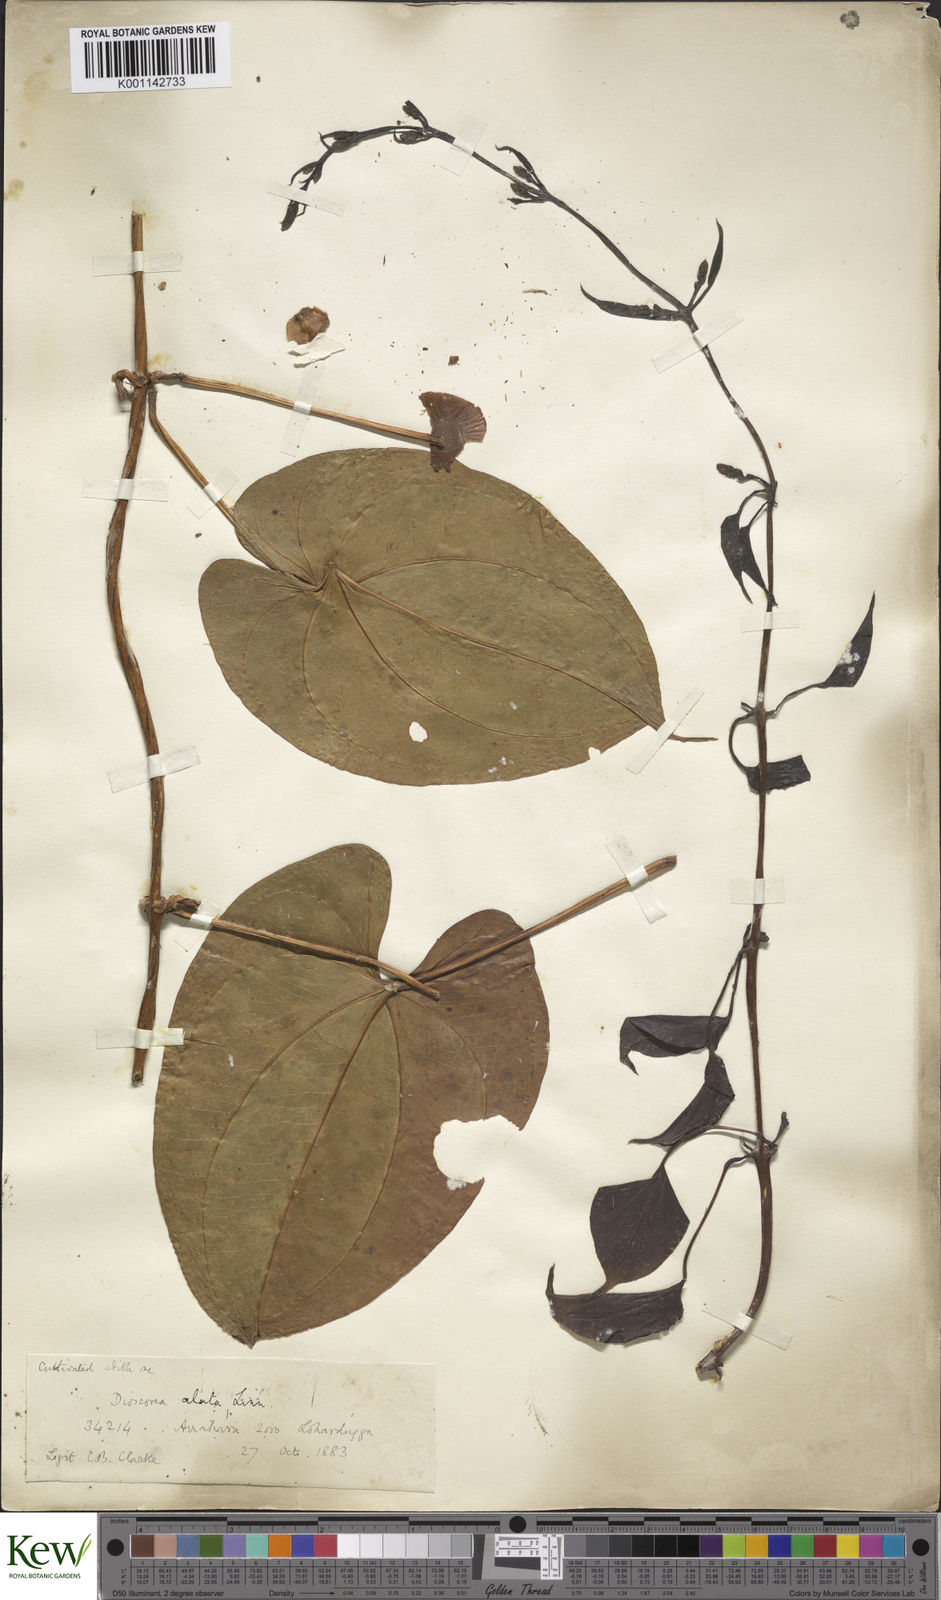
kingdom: Plantae
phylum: Tracheophyta
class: Liliopsida
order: Dioscoreales
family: Dioscoreaceae
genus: Dioscorea
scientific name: Dioscorea alata
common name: Water yam
